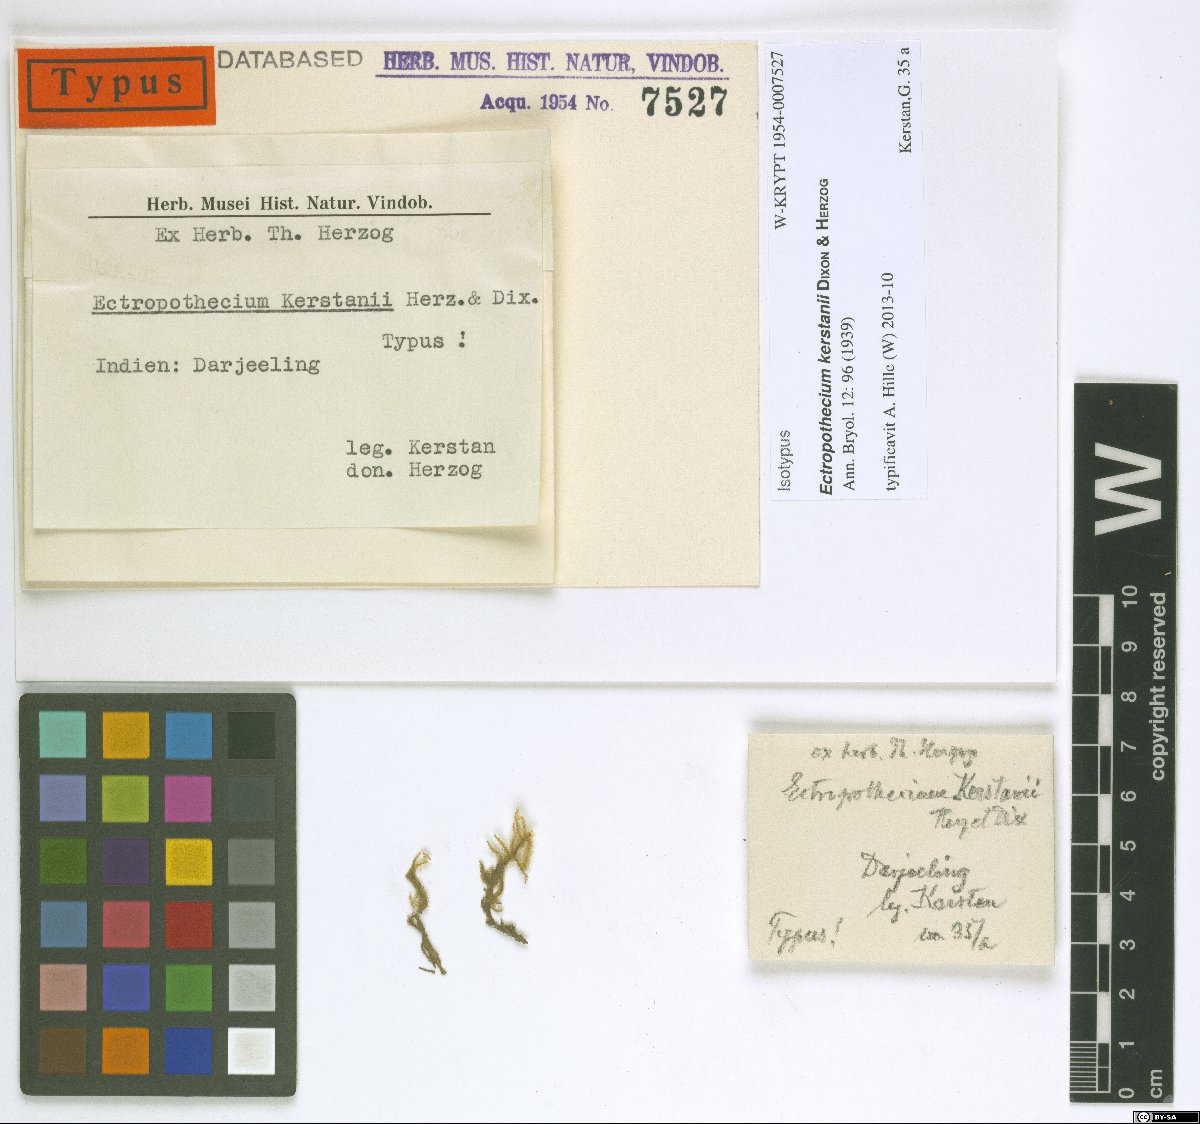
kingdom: Plantae
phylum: Bryophyta
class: Bryopsida
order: Hypnales
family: Hypnaceae
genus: Ectropothecium
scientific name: Ectropothecium kerstanii
